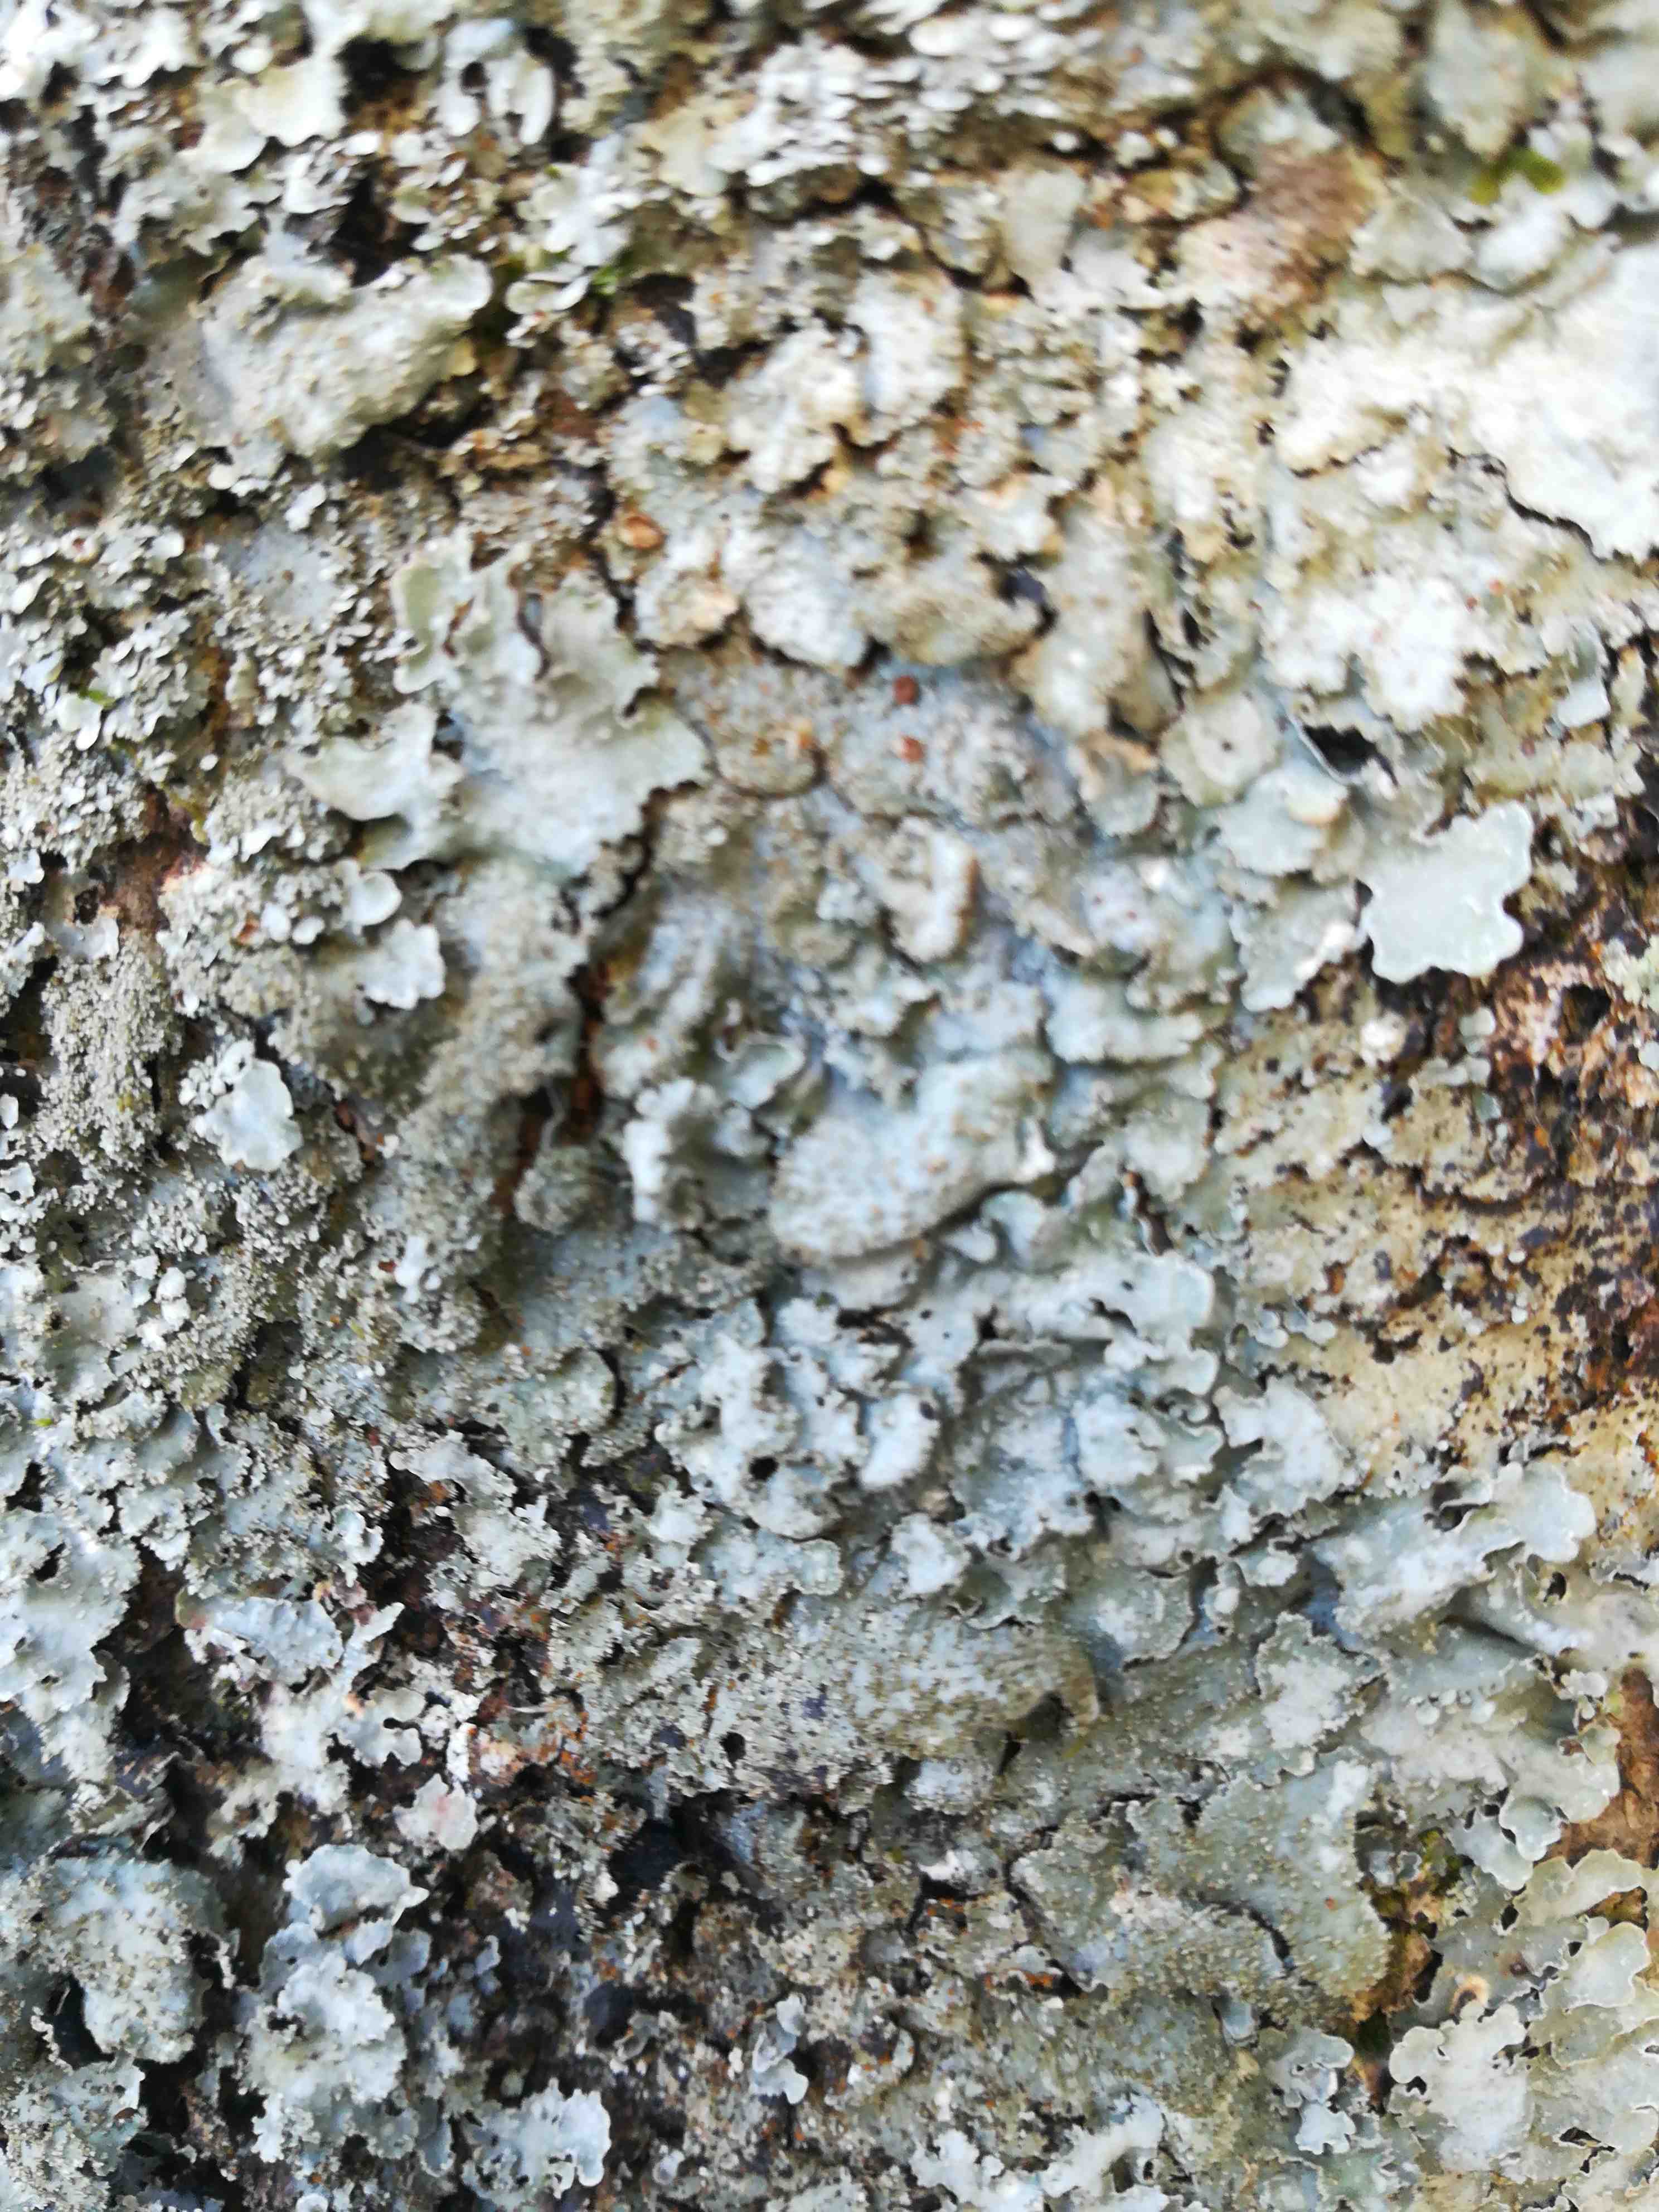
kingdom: Fungi
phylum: Ascomycota
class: Lecanoromycetes
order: Lecanorales
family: Parmeliaceae
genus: Parmelia
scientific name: Parmelia
